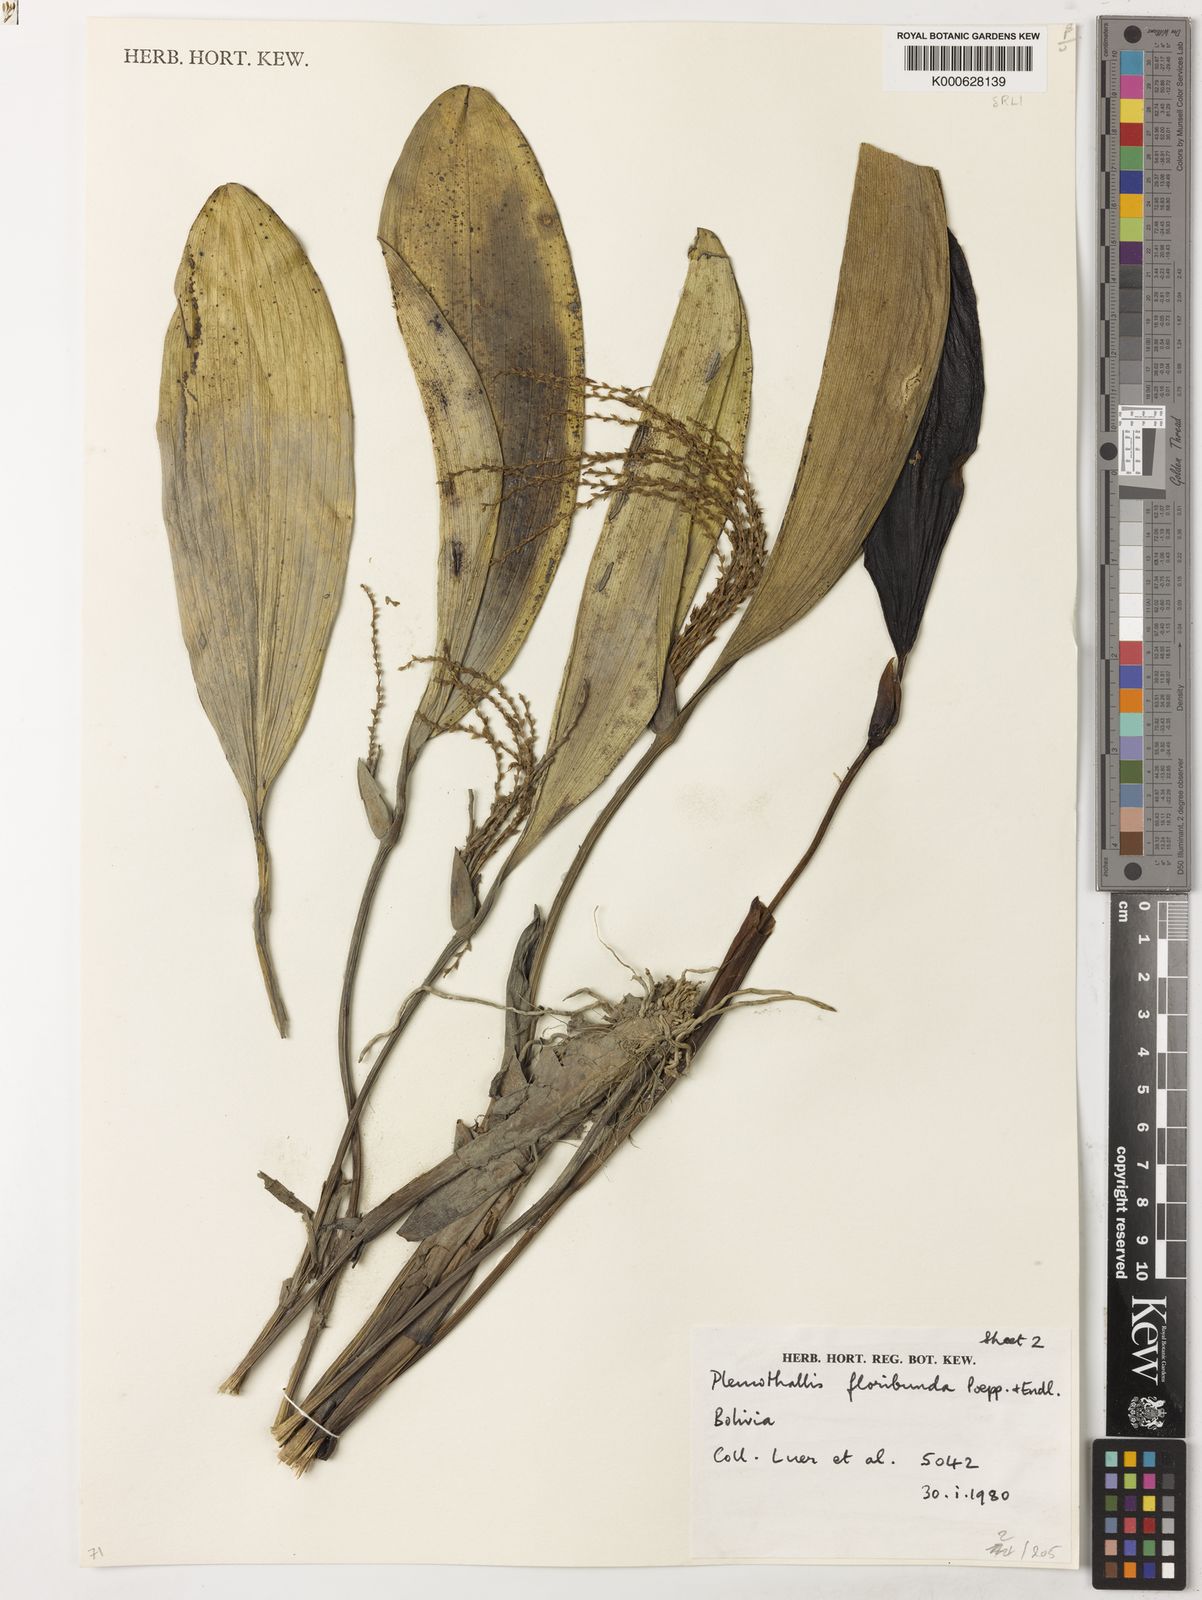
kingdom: Plantae
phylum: Tracheophyta
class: Liliopsida
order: Asparagales
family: Orchidaceae
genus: Pleurothallis
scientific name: Pleurothallis
